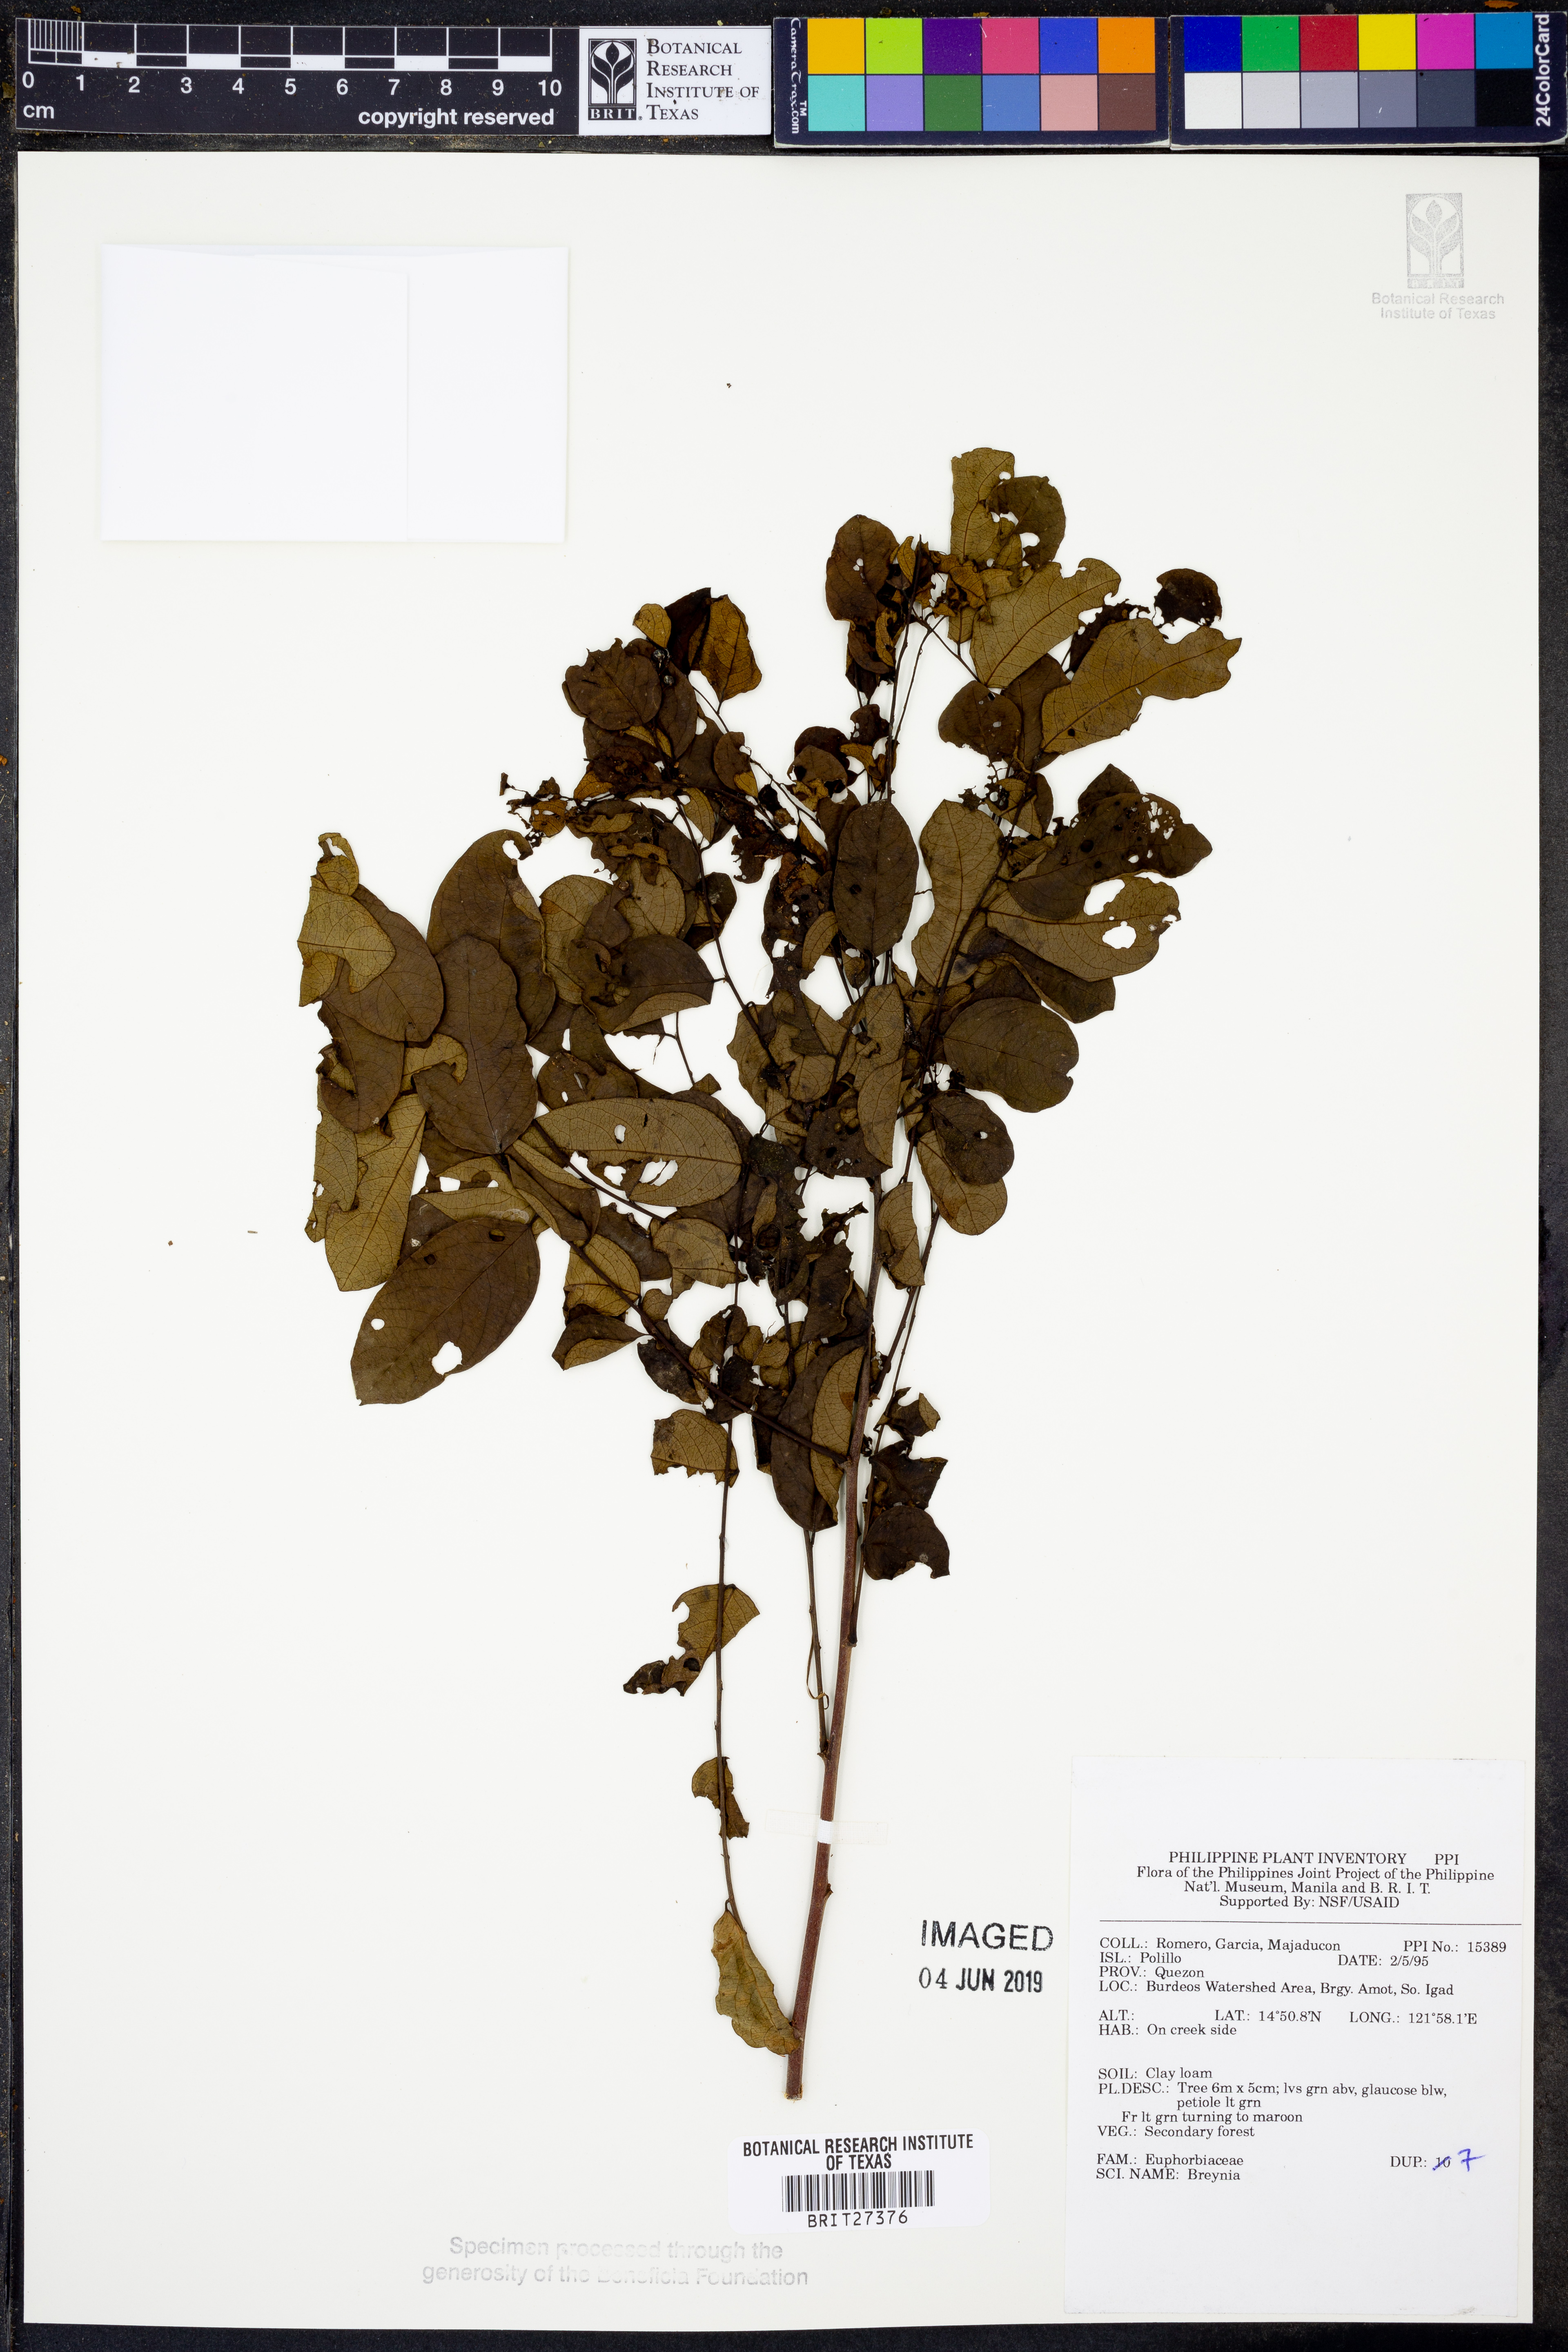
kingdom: Plantae
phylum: Tracheophyta
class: Magnoliopsida
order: Malpighiales
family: Phyllanthaceae
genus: Breynia
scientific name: Breynia
